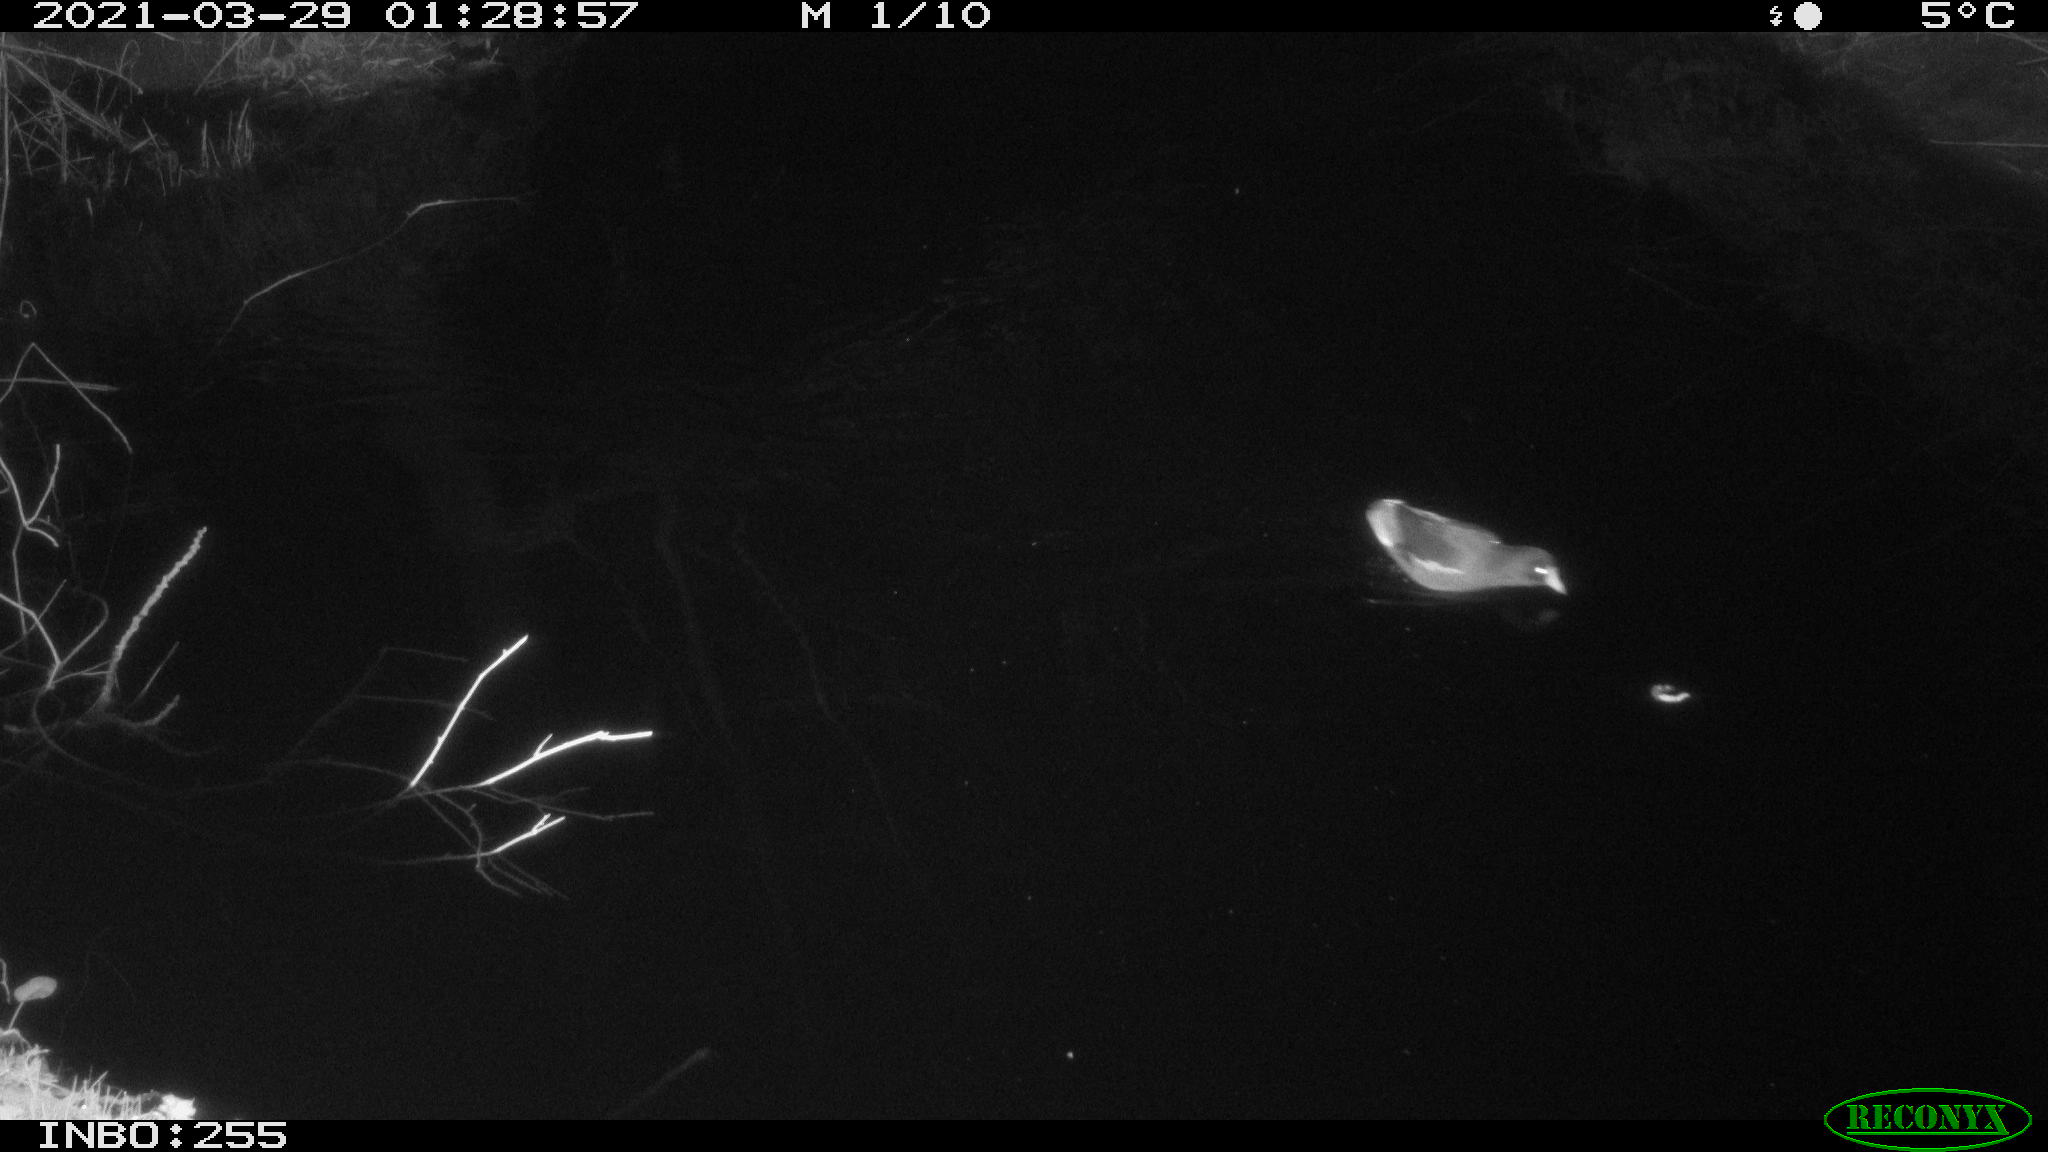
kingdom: Animalia
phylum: Chordata
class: Aves
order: Gruiformes
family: Rallidae
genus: Gallinula
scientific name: Gallinula chloropus
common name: Common moorhen
